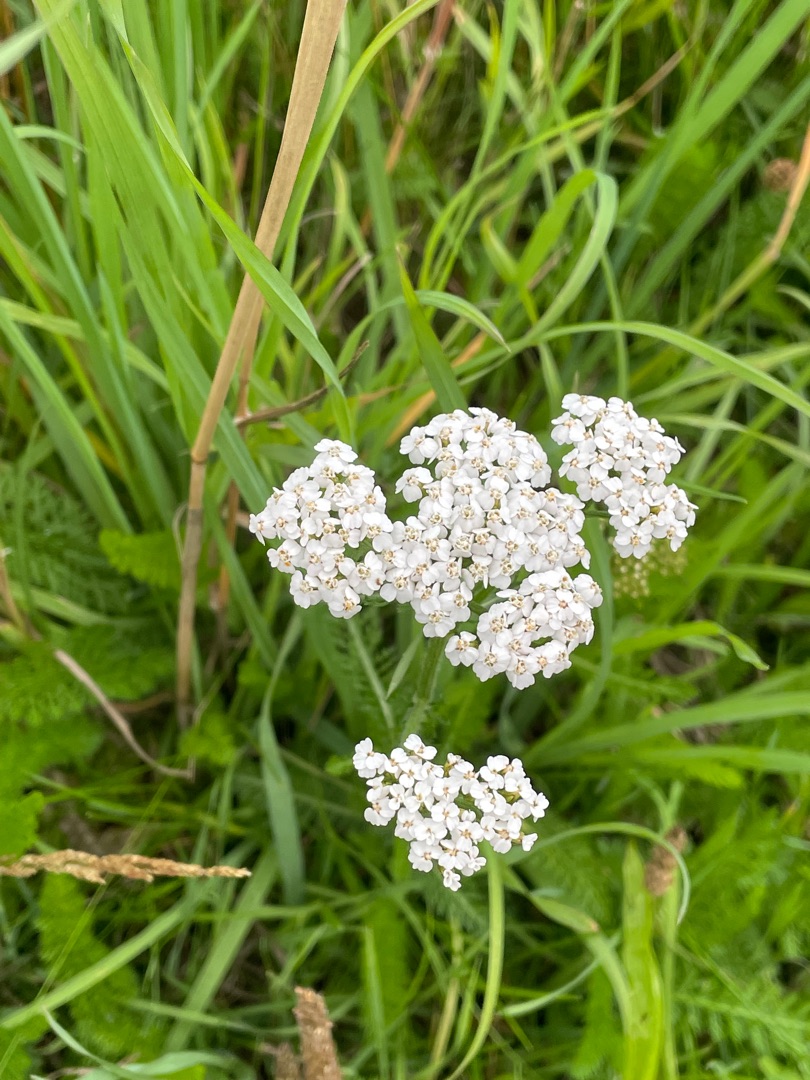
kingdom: Plantae
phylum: Tracheophyta
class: Magnoliopsida
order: Asterales
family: Asteraceae
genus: Achillea
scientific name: Achillea millefolium
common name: Almindelig røllike
